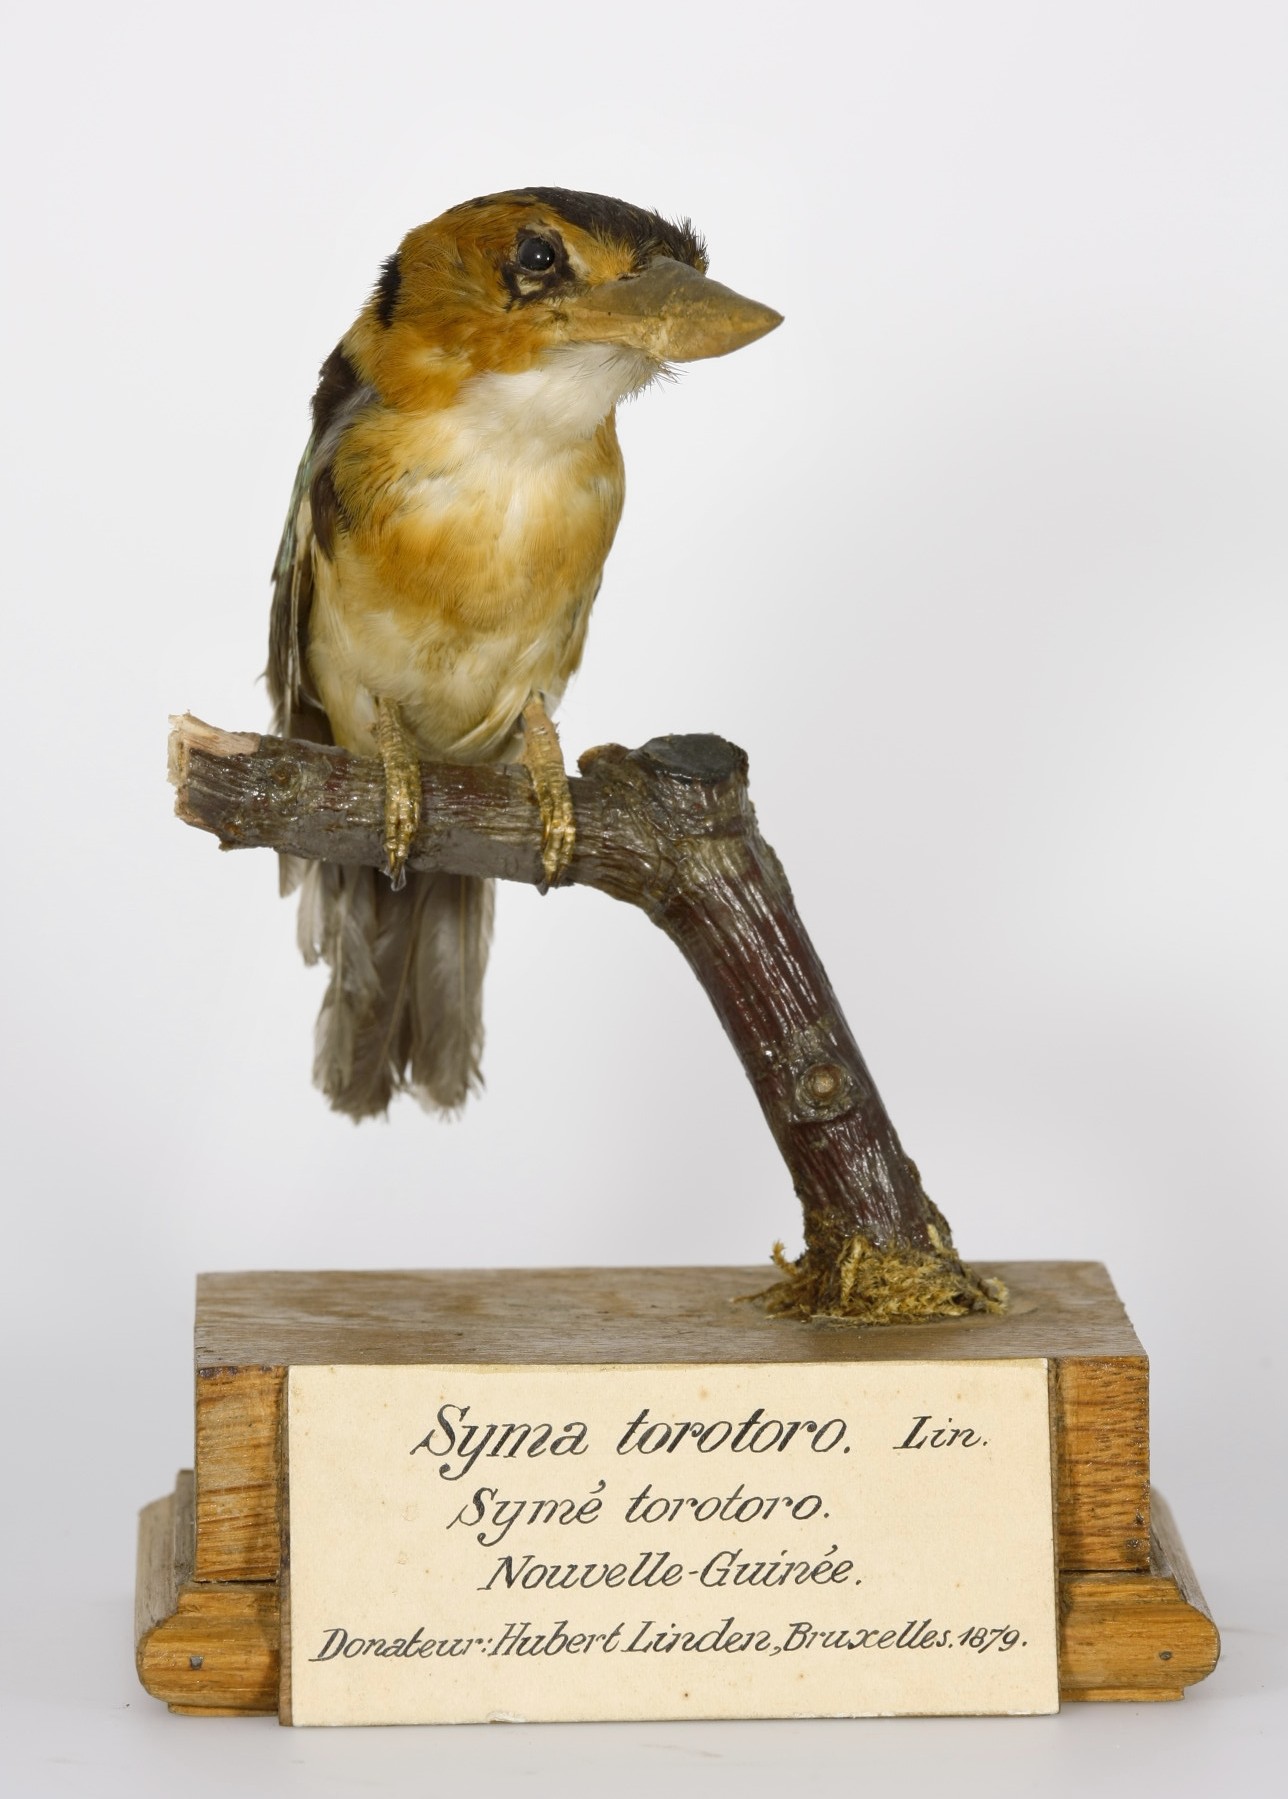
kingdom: Animalia
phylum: Chordata
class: Aves
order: Coraciiformes
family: Alcedinidae
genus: Syma
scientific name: Syma torotoro
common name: Yellow-billed kingfisher
